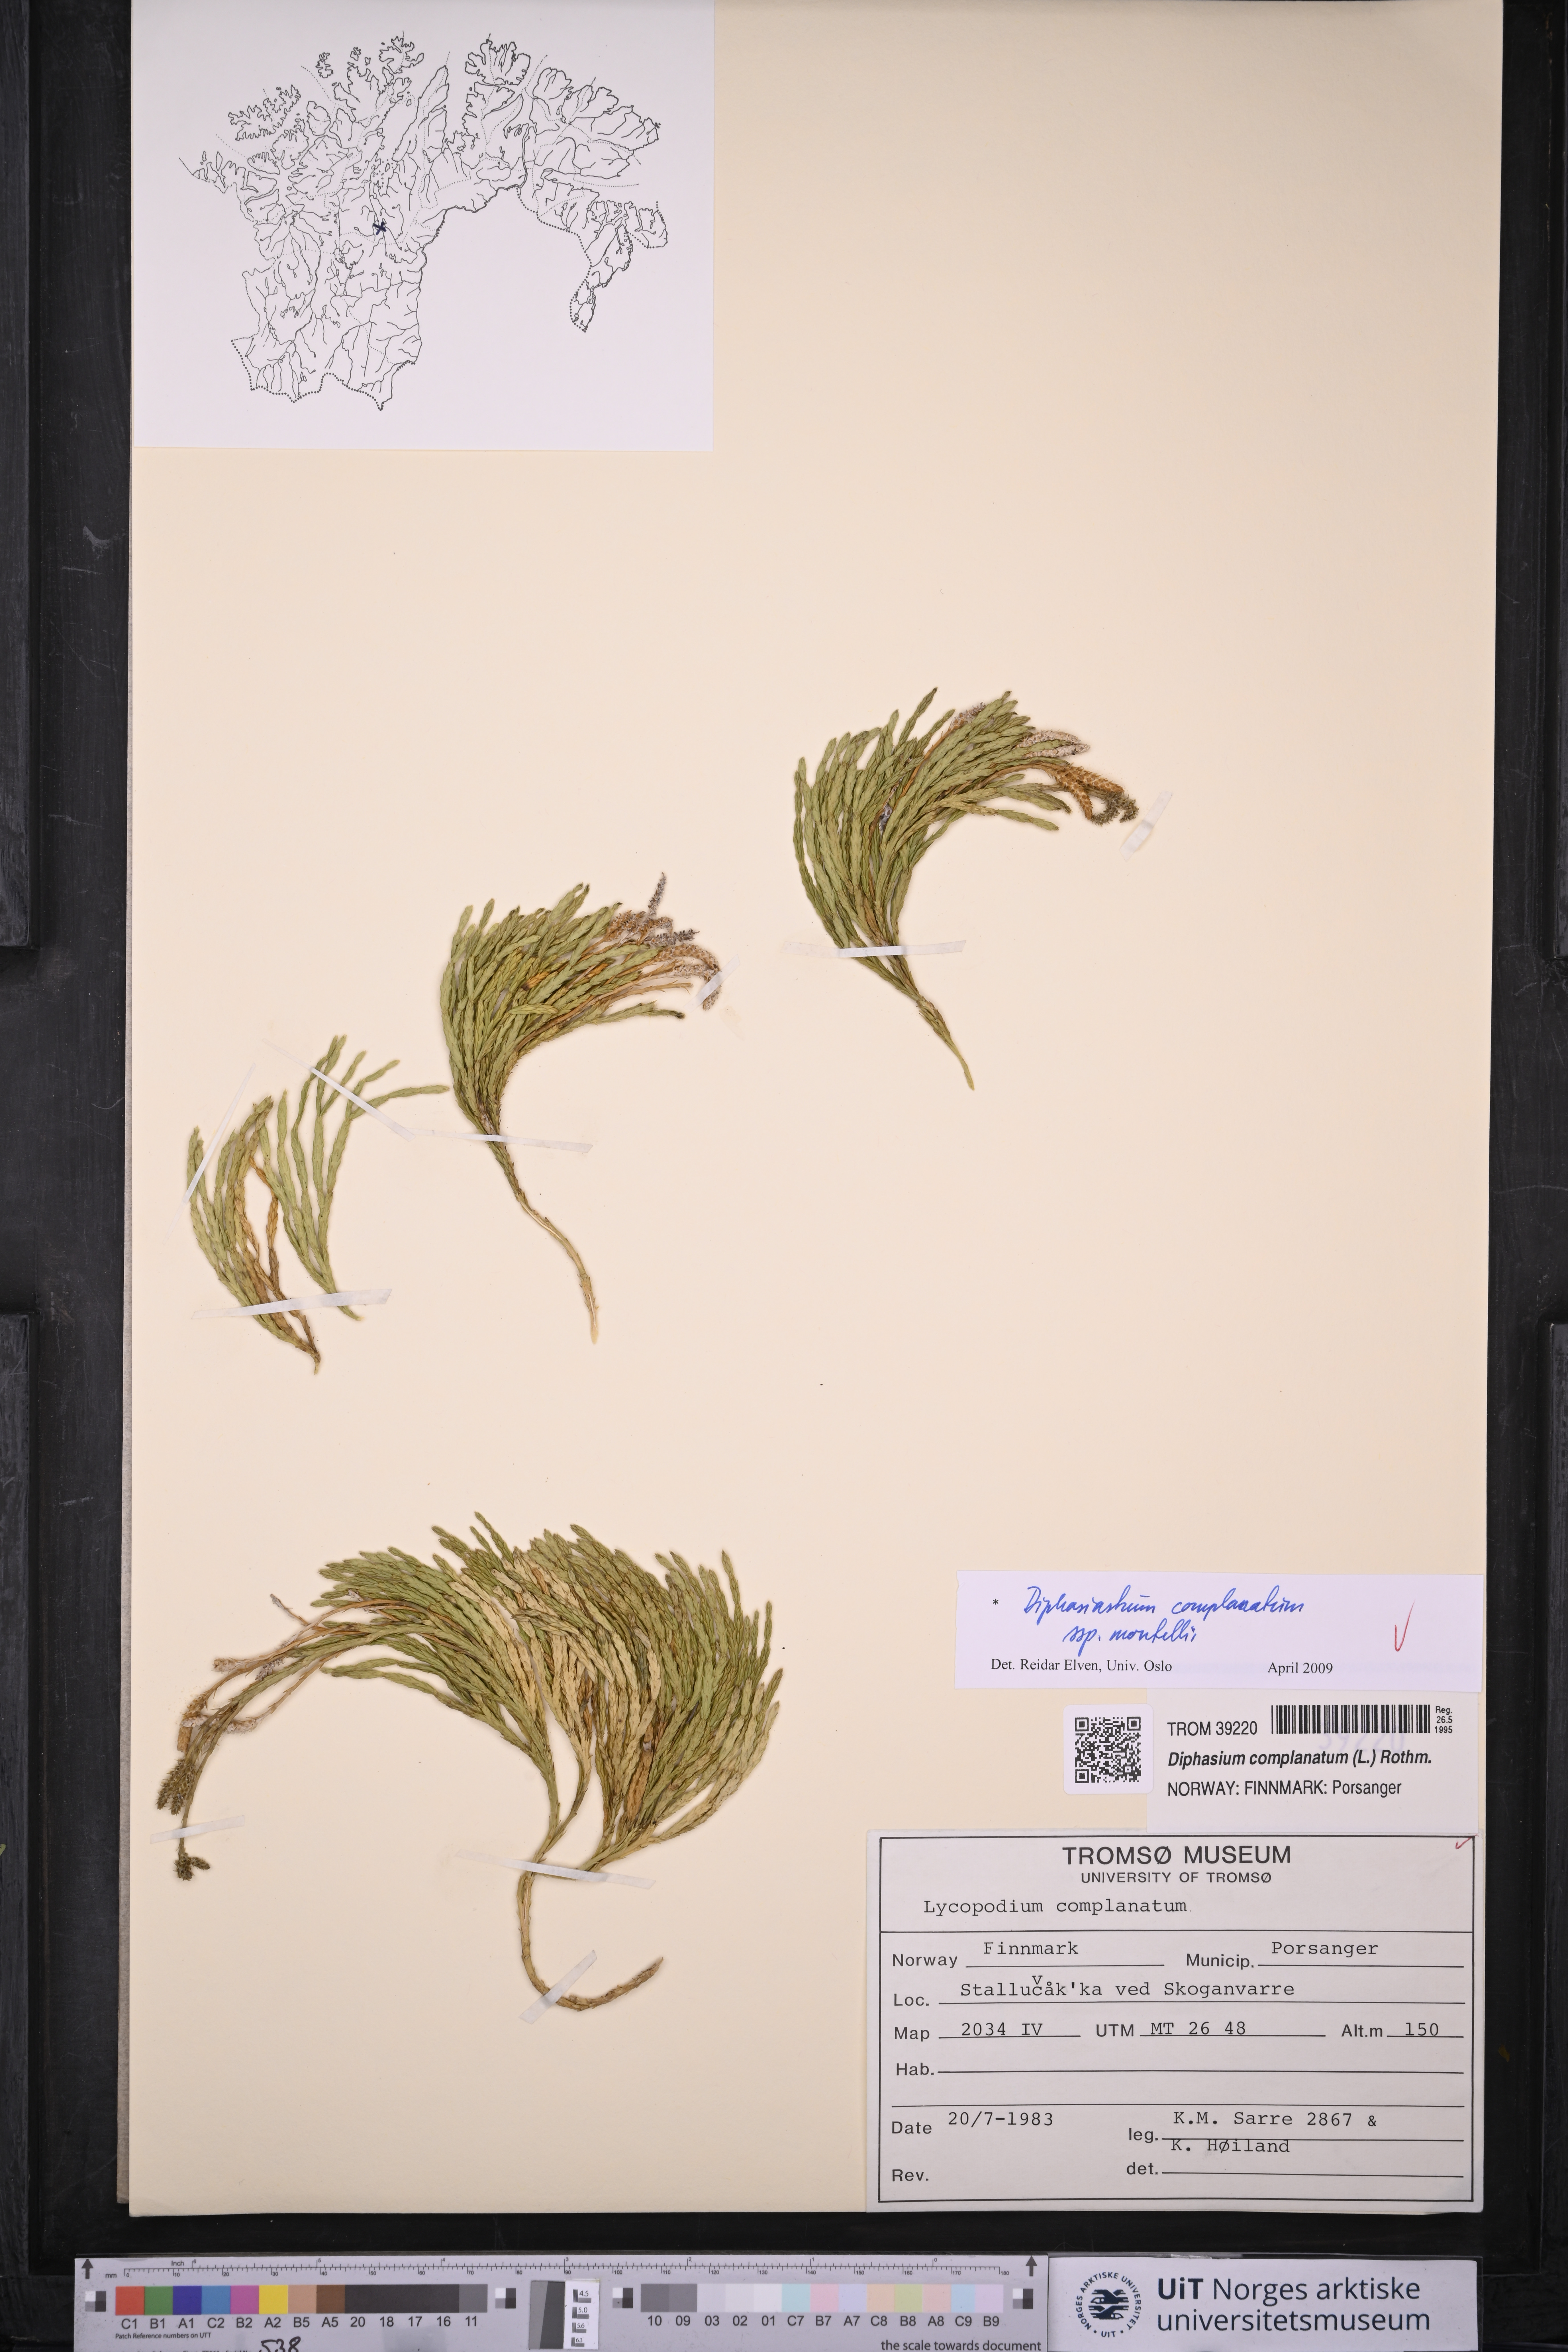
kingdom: Plantae
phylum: Tracheophyta
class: Lycopodiopsida
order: Lycopodiales
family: Lycopodiaceae
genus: Diphasiastrum
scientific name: Diphasiastrum complanatum
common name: Northern running-pine
